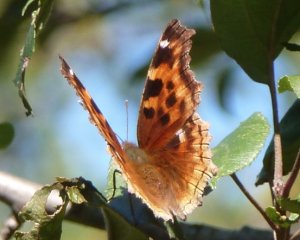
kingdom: Animalia
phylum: Arthropoda
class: Insecta
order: Lepidoptera
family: Nymphalidae
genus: Polygonia
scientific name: Polygonia vaualbum
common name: Compton Tortoiseshell
